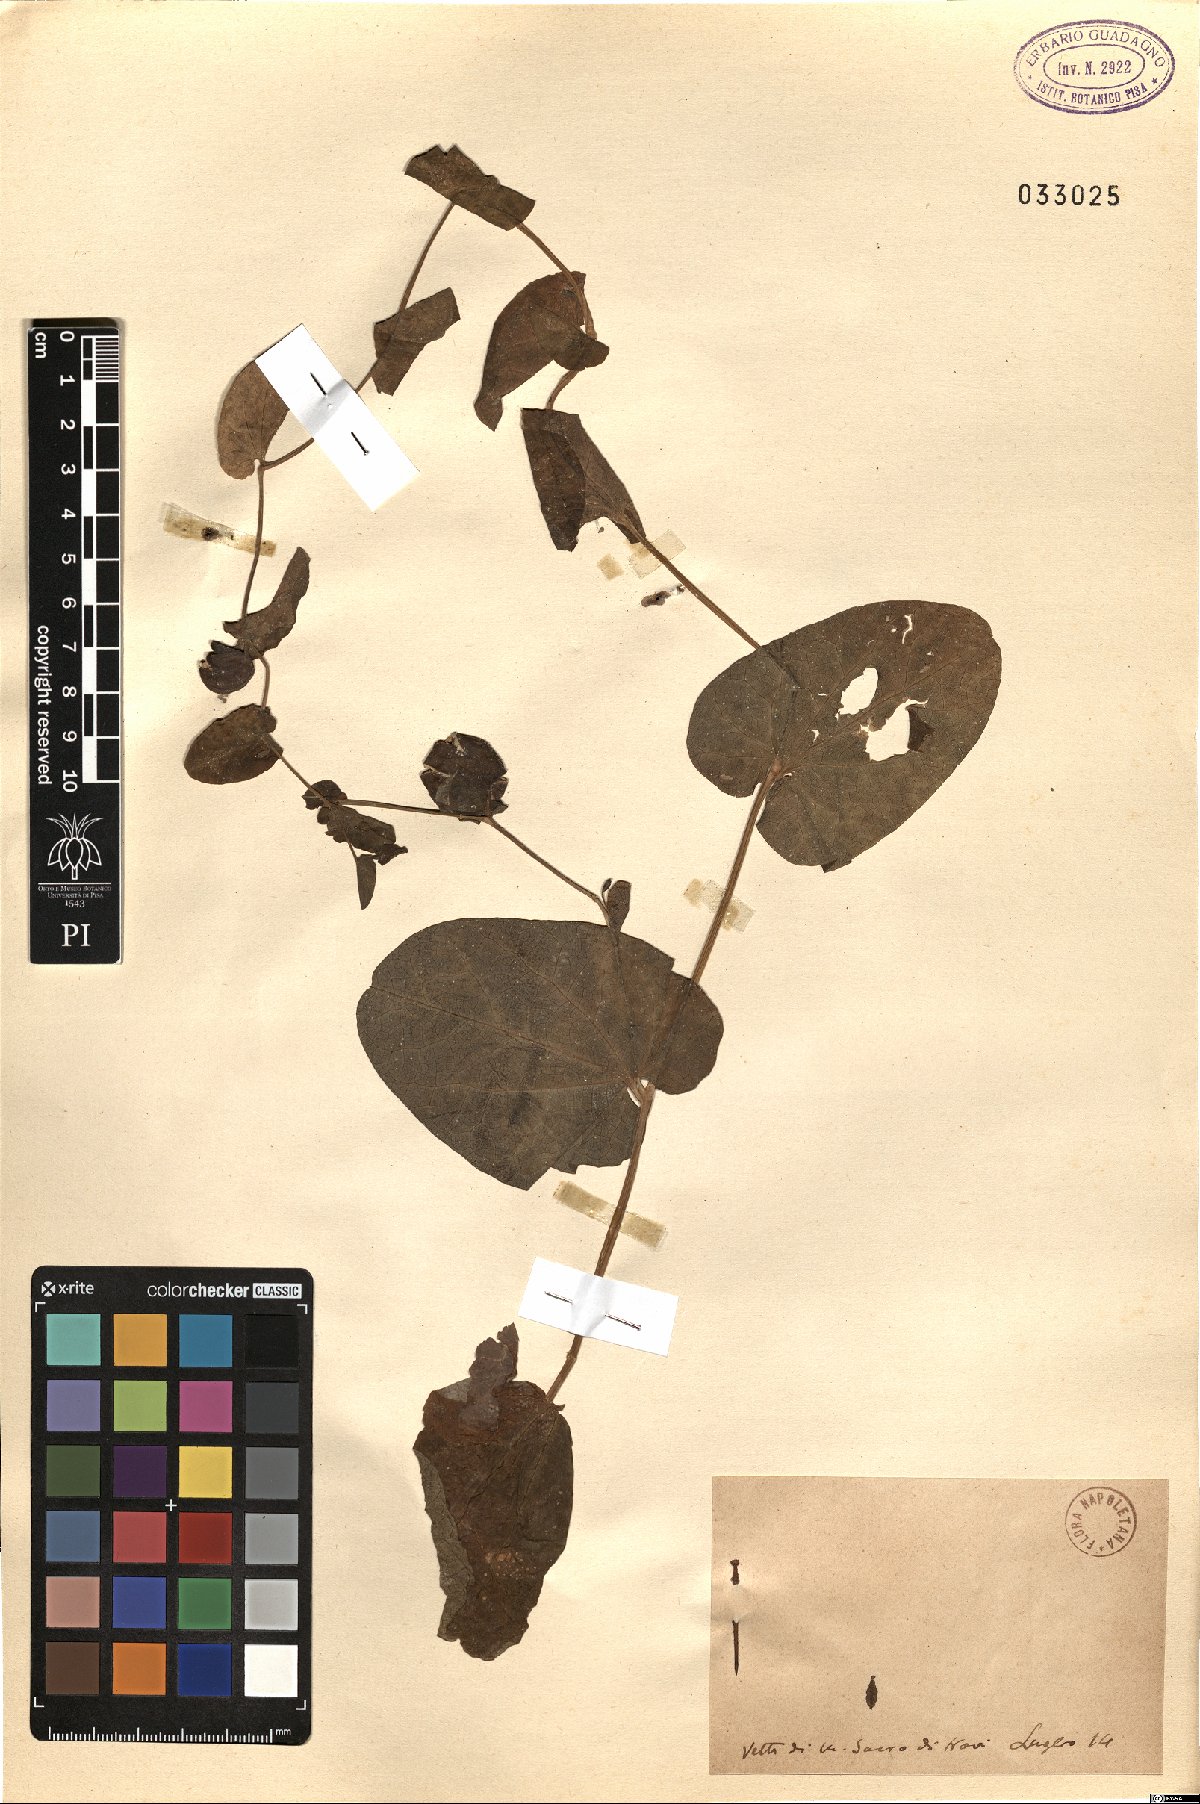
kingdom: Plantae
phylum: Tracheophyta
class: Magnoliopsida
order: Piperales
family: Aristolochiaceae
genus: Aristolochia
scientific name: Aristolochia
